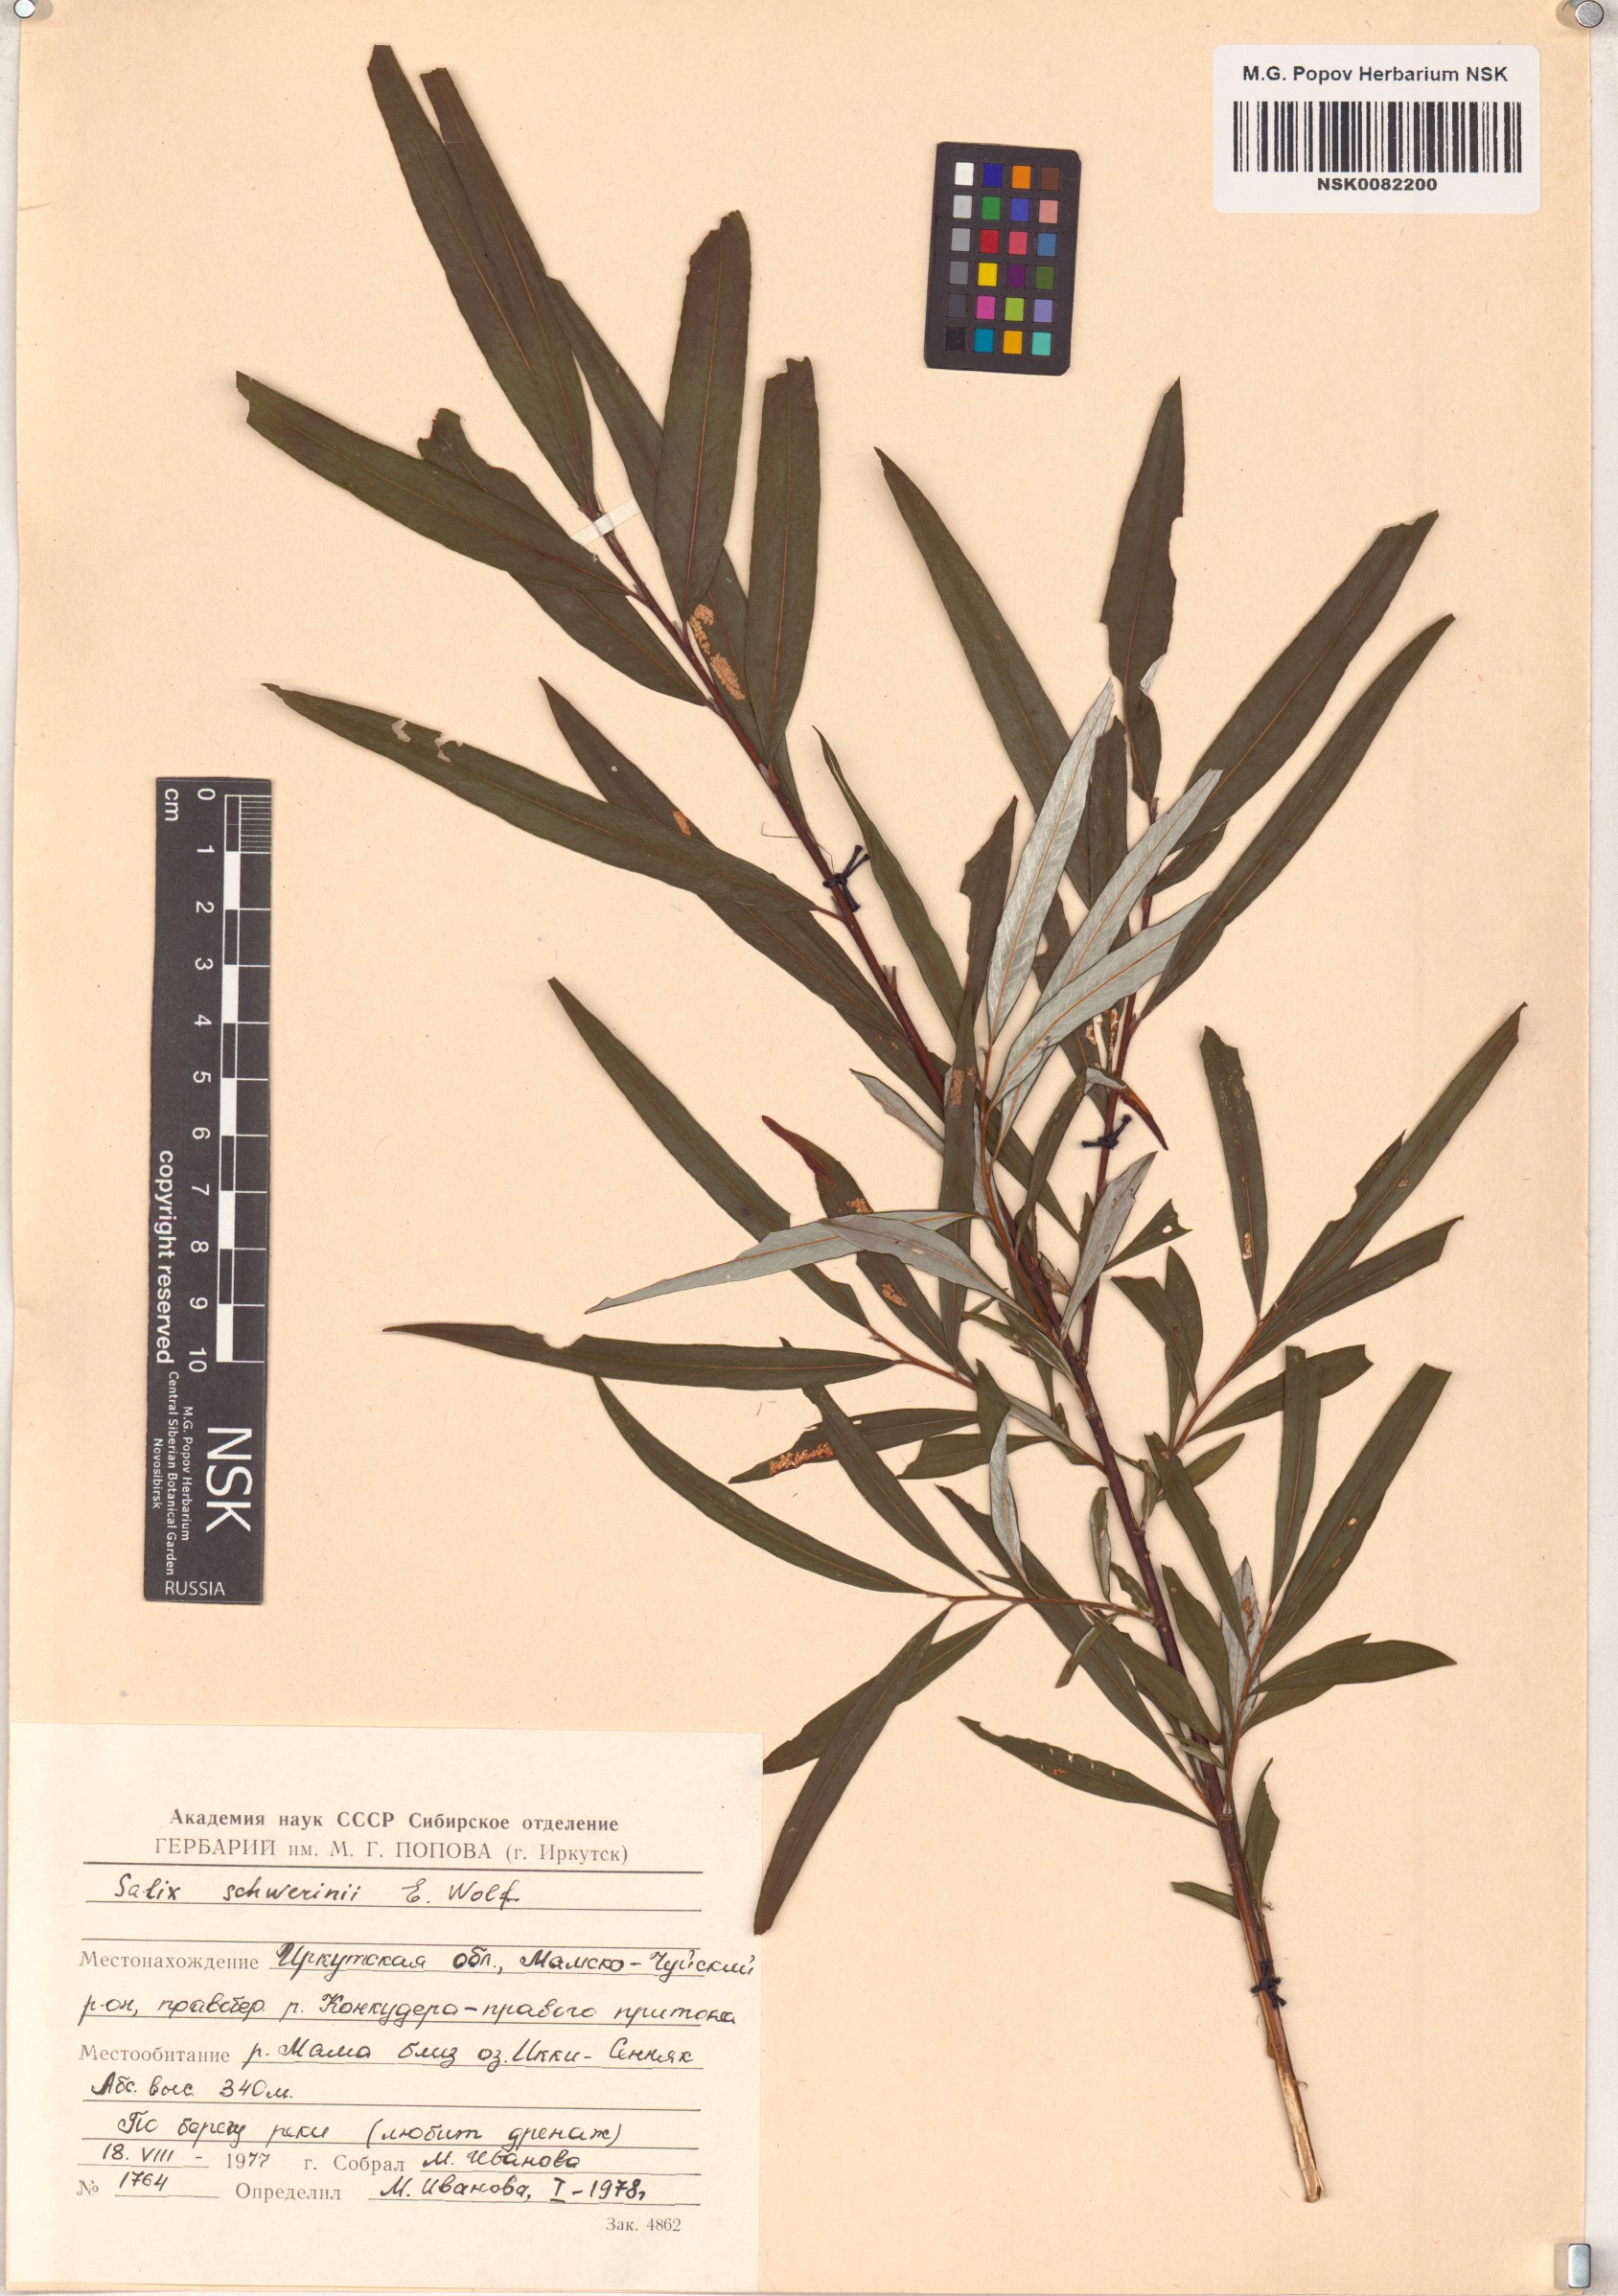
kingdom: Plantae
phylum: Tracheophyta
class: Magnoliopsida
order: Malpighiales
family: Salicaceae
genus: Salix
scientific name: Salix schwerinii
